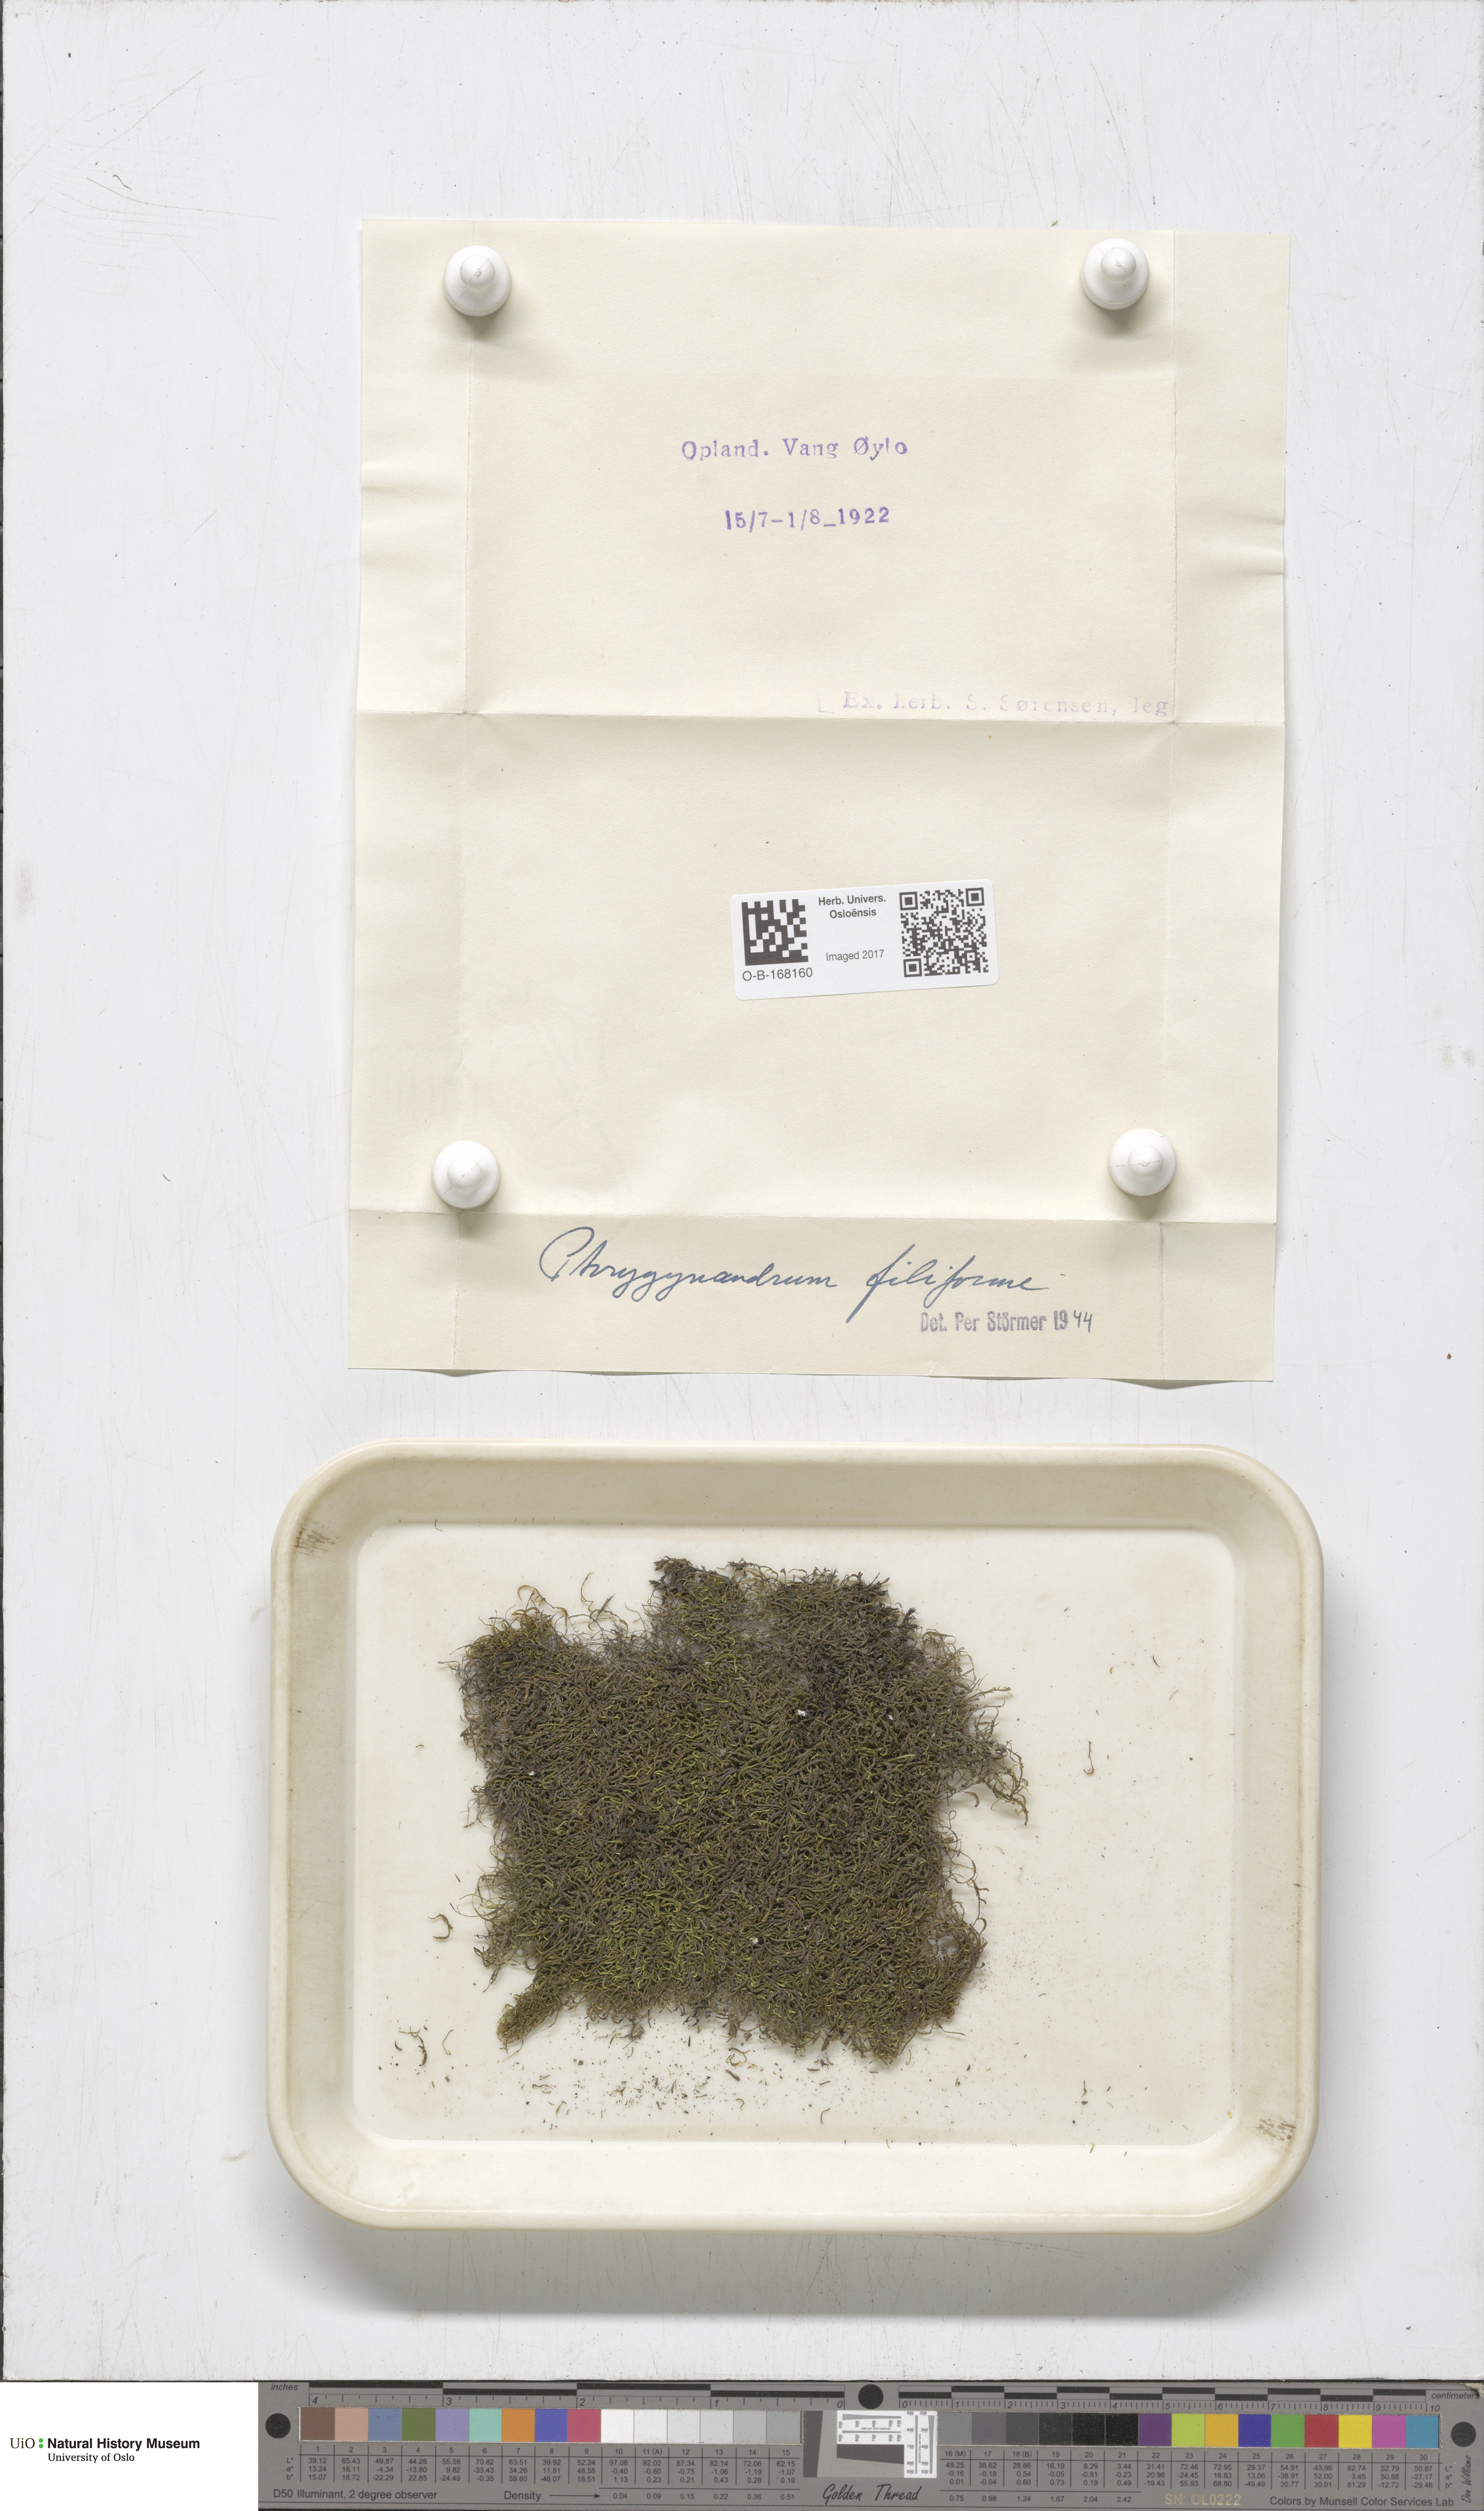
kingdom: Plantae
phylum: Bryophyta
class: Bryopsida
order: Hypnales
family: Pterigynandraceae
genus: Pterigynandrum
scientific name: Pterigynandrum filiforme
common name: Capillary wing moss
